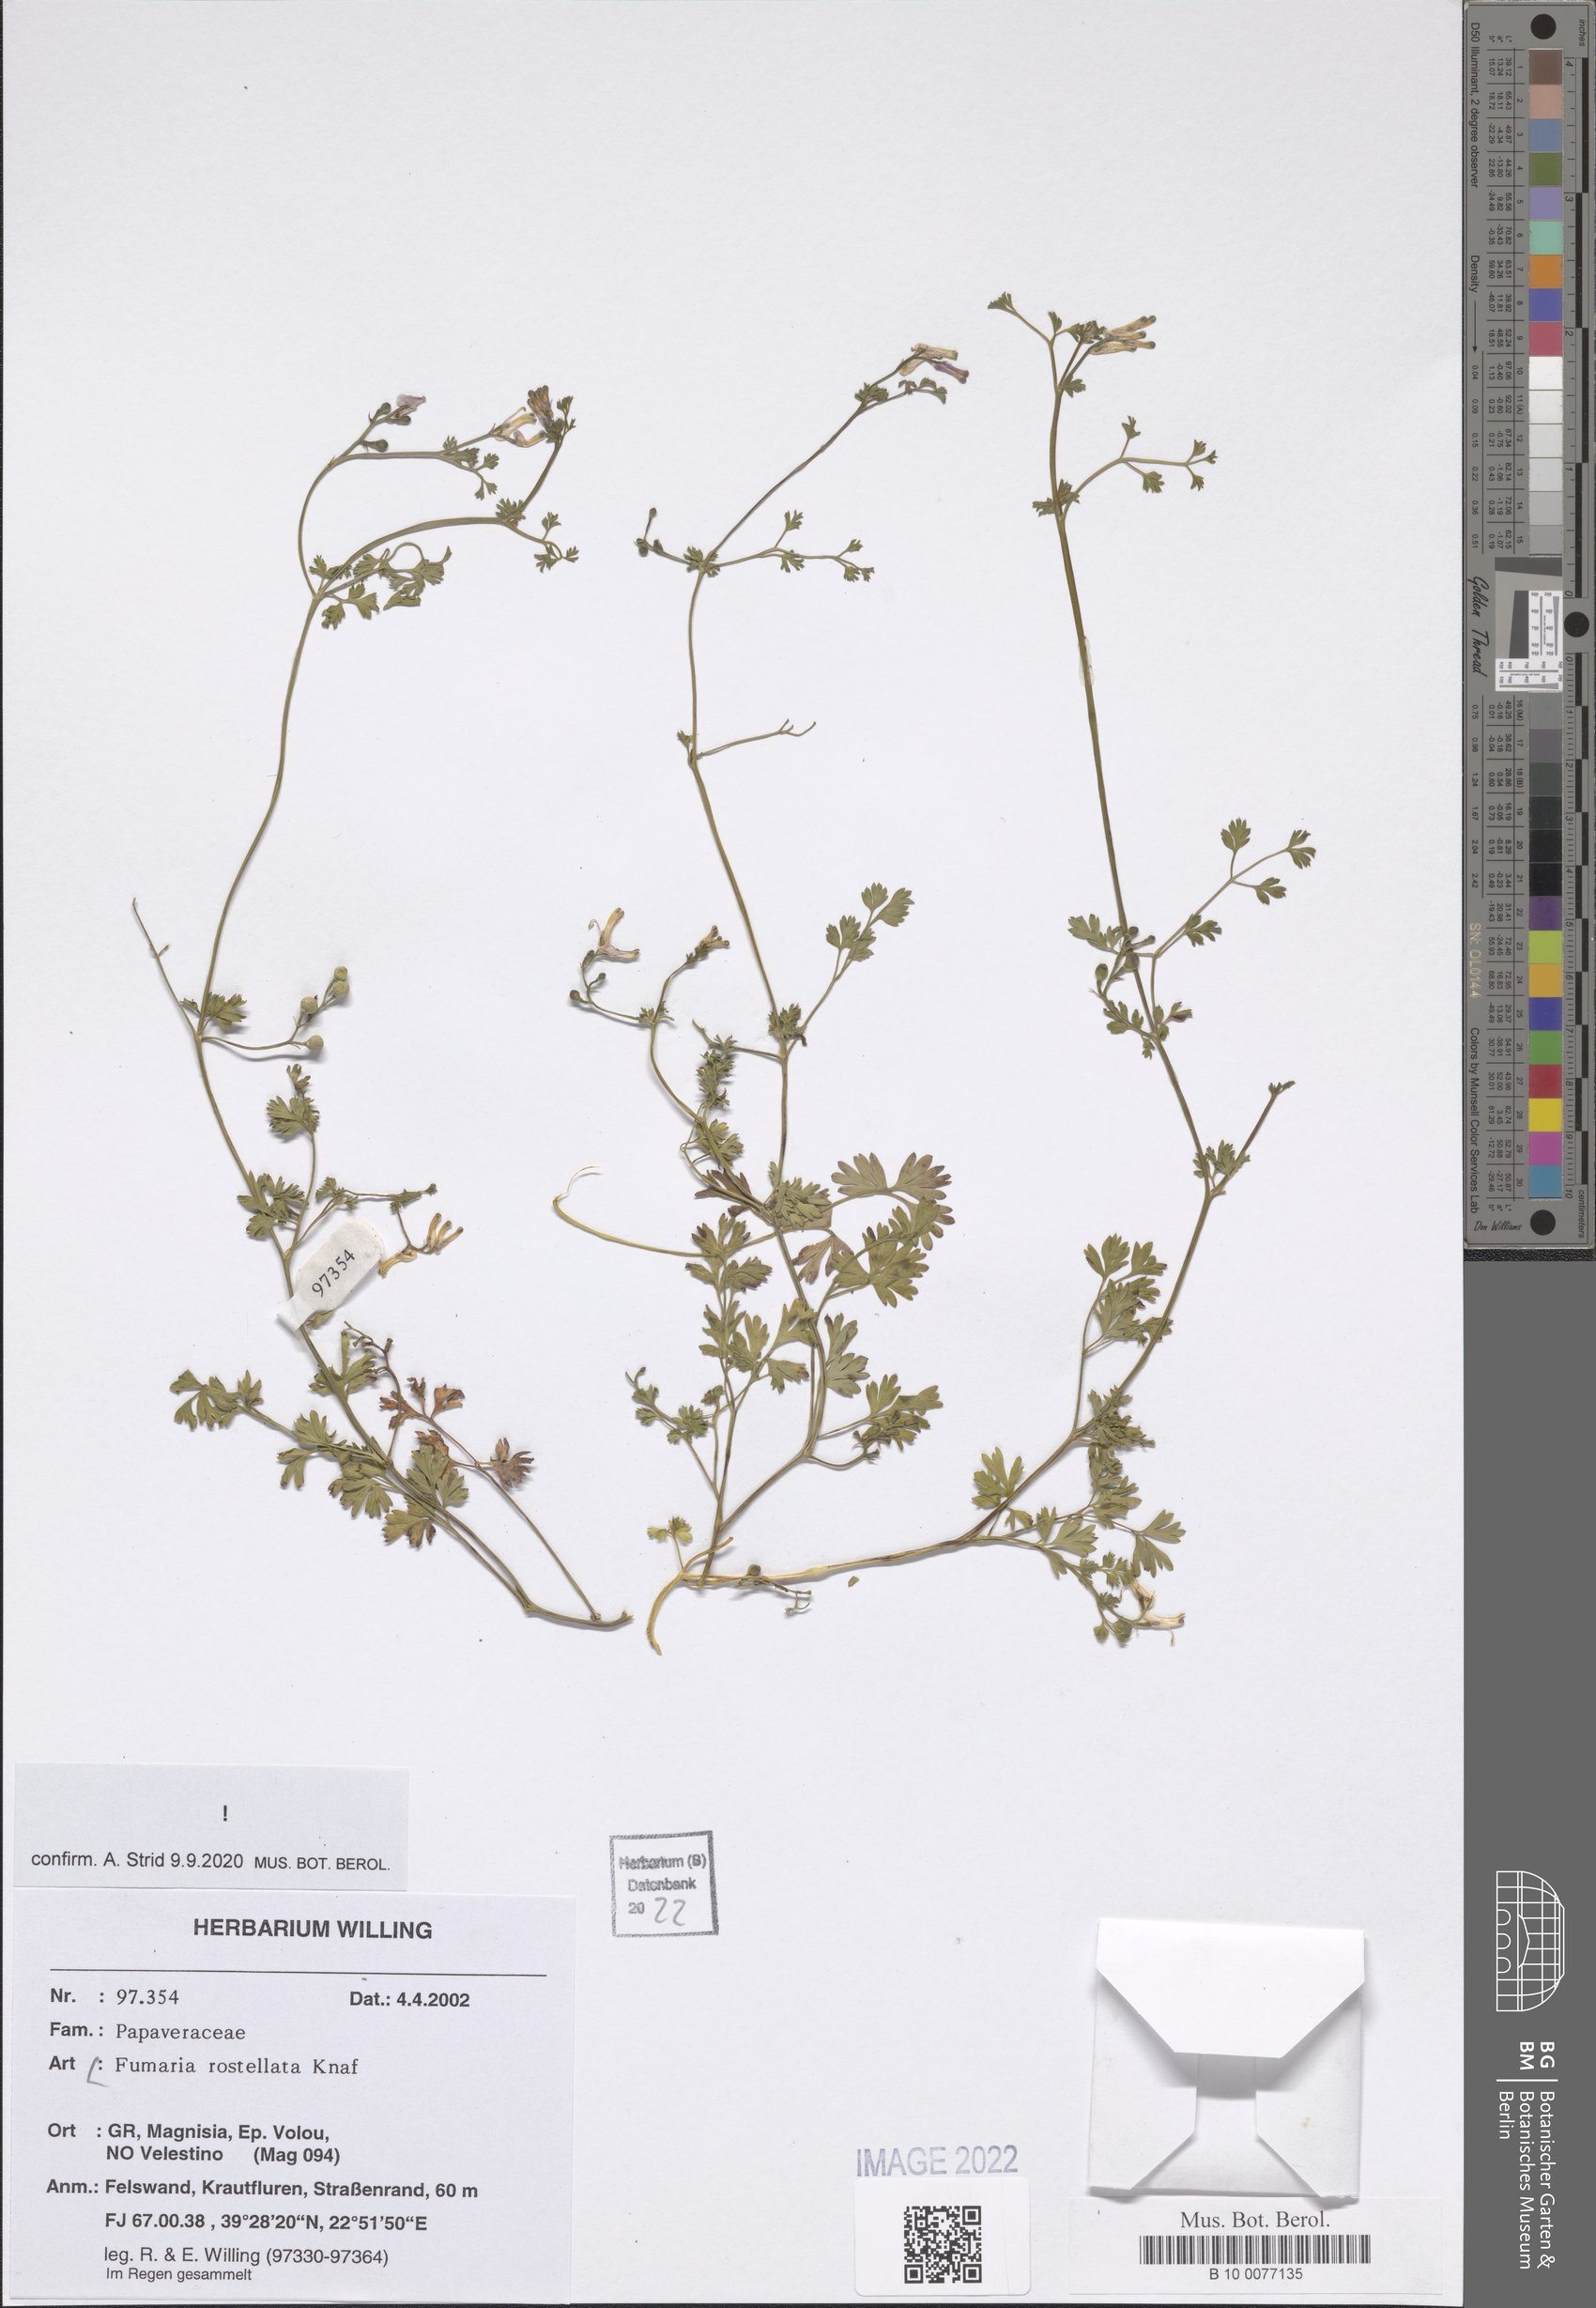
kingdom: Plantae
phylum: Tracheophyta
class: Magnoliopsida
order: Ranunculales
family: Papaveraceae
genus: Fumaria
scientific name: Fumaria rostellata
